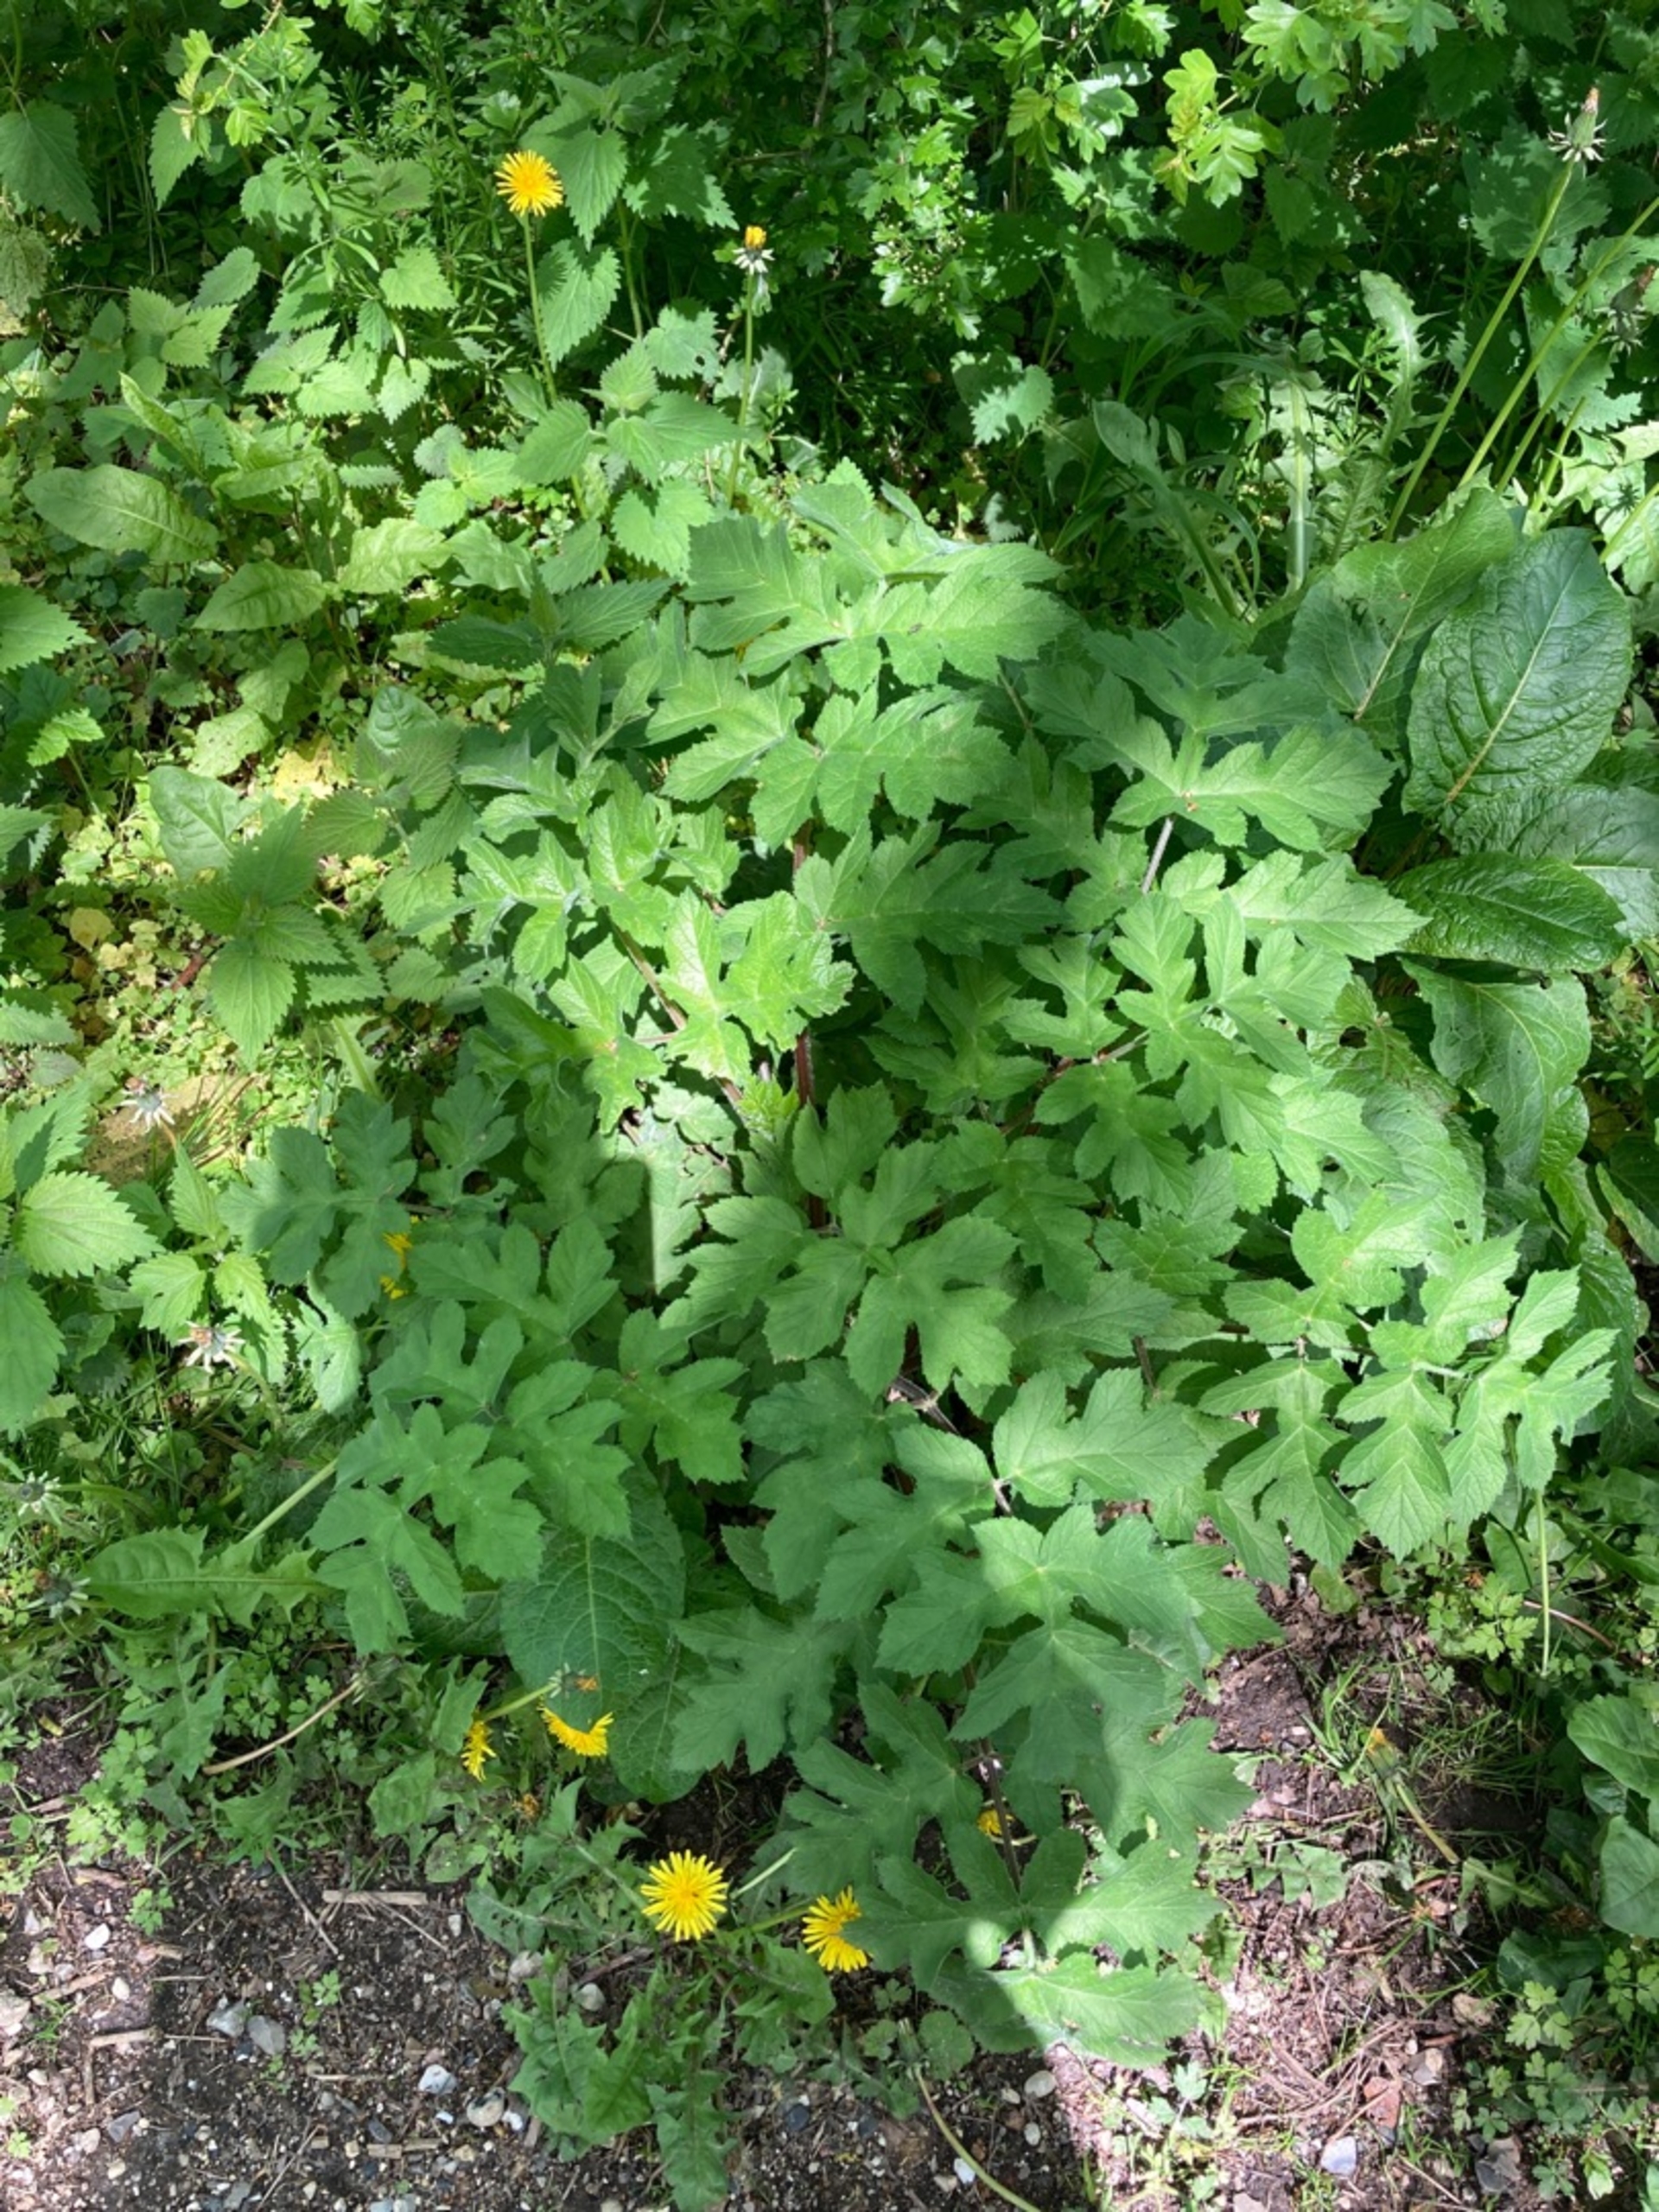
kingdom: Plantae
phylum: Tracheophyta
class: Magnoliopsida
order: Apiales
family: Apiaceae
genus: Heracleum
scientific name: Heracleum sphondylium
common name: Almindelig bjørneklo
